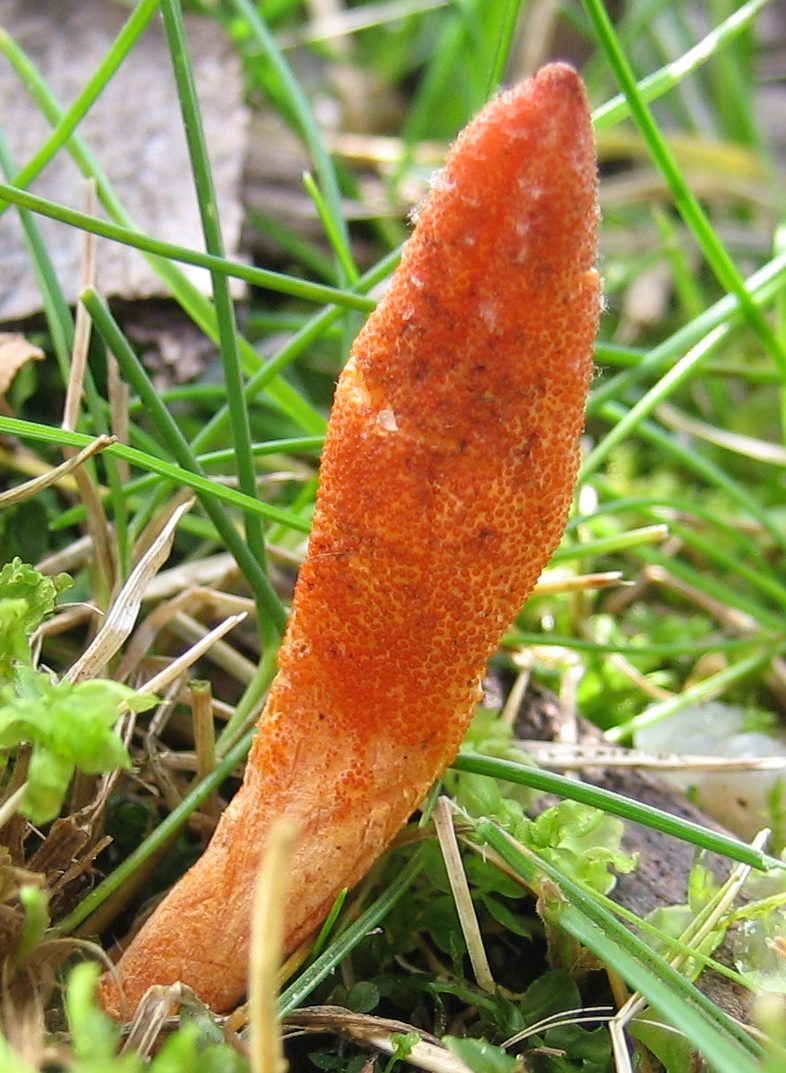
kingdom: Fungi
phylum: Ascomycota
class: Sordariomycetes
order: Hypocreales
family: Cordycipitaceae
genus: Cordyceps
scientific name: Cordyceps militaris
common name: puppe-snyltekølle
